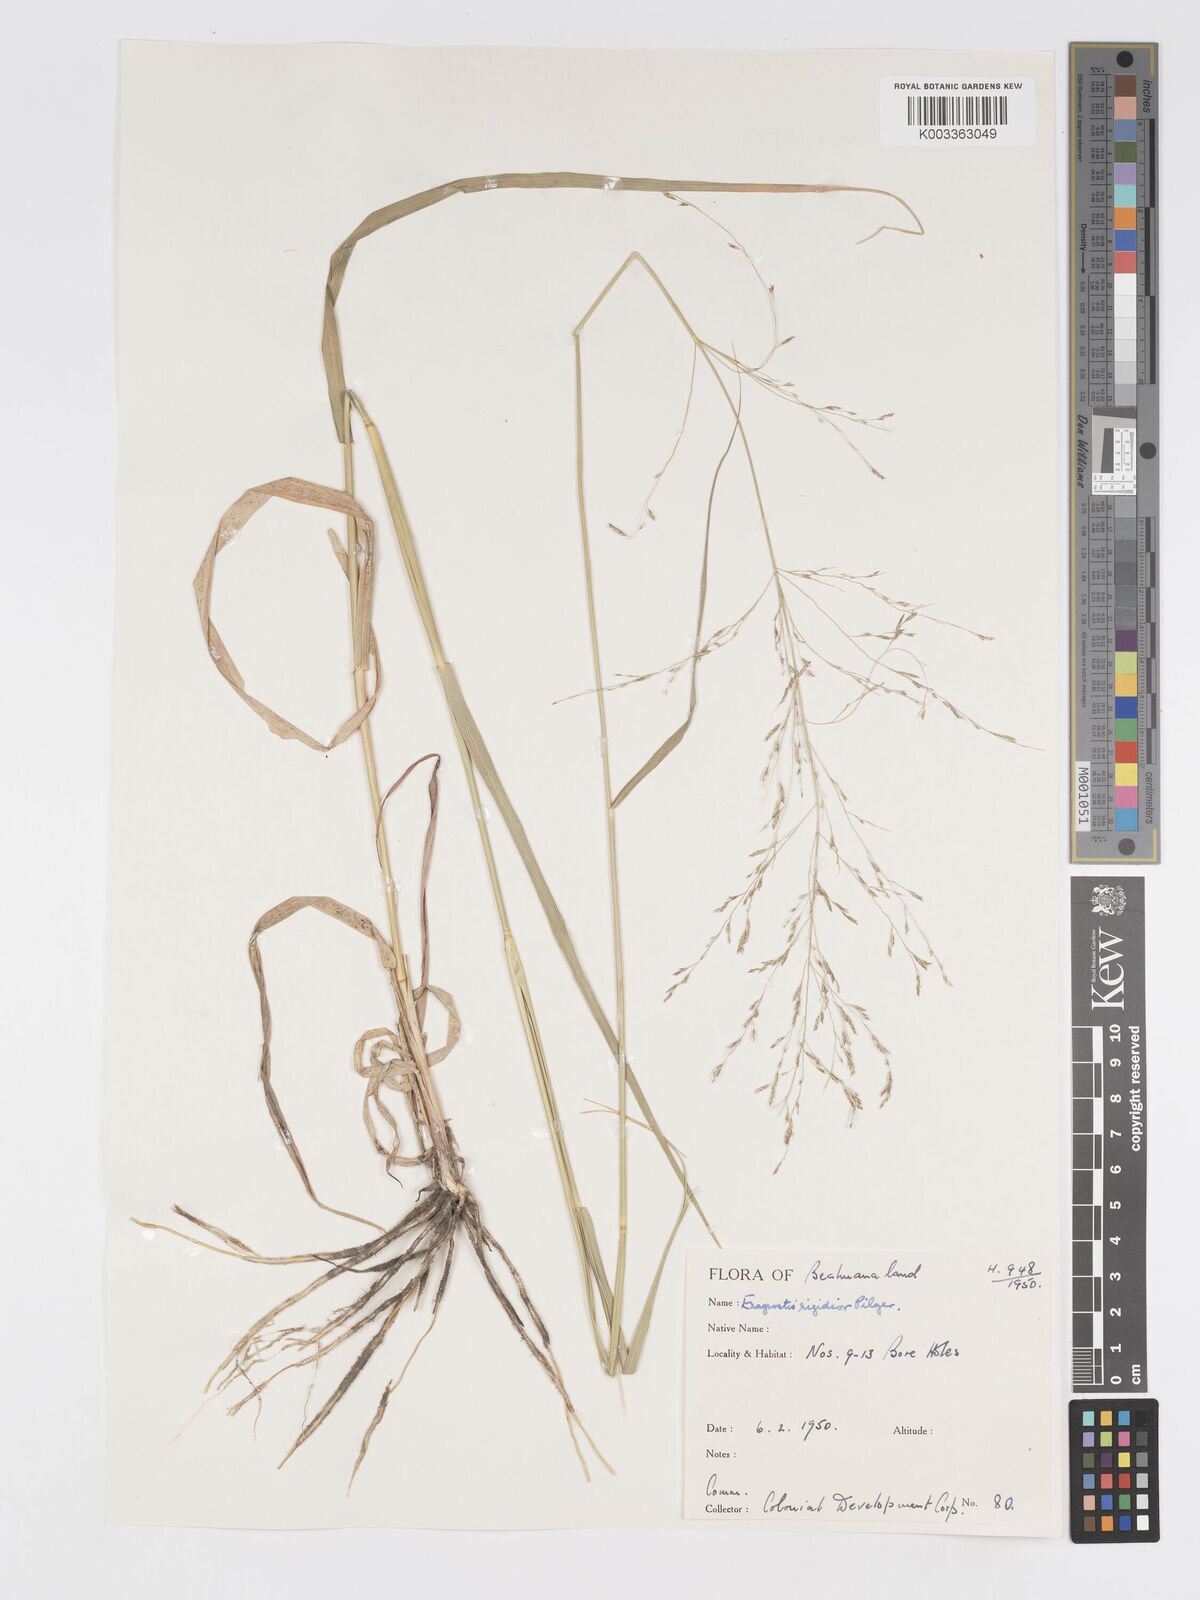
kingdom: Plantae
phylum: Tracheophyta
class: Liliopsida
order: Poales
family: Poaceae
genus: Eragrostis
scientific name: Eragrostis cylindriflora
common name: Cylinderflower lovegrass
